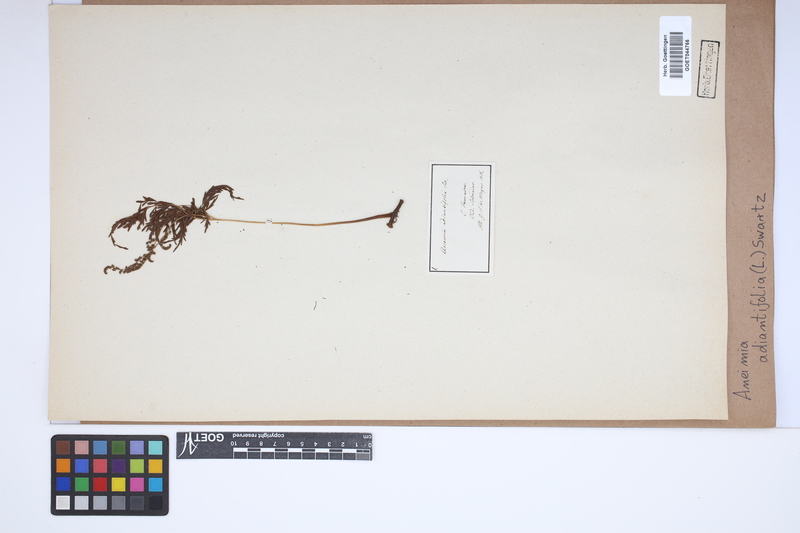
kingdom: Plantae
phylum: Tracheophyta
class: Polypodiopsida
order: Schizaeales
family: Anemiaceae
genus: Anemia
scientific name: Anemia adiantifolia
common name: Pine fern
